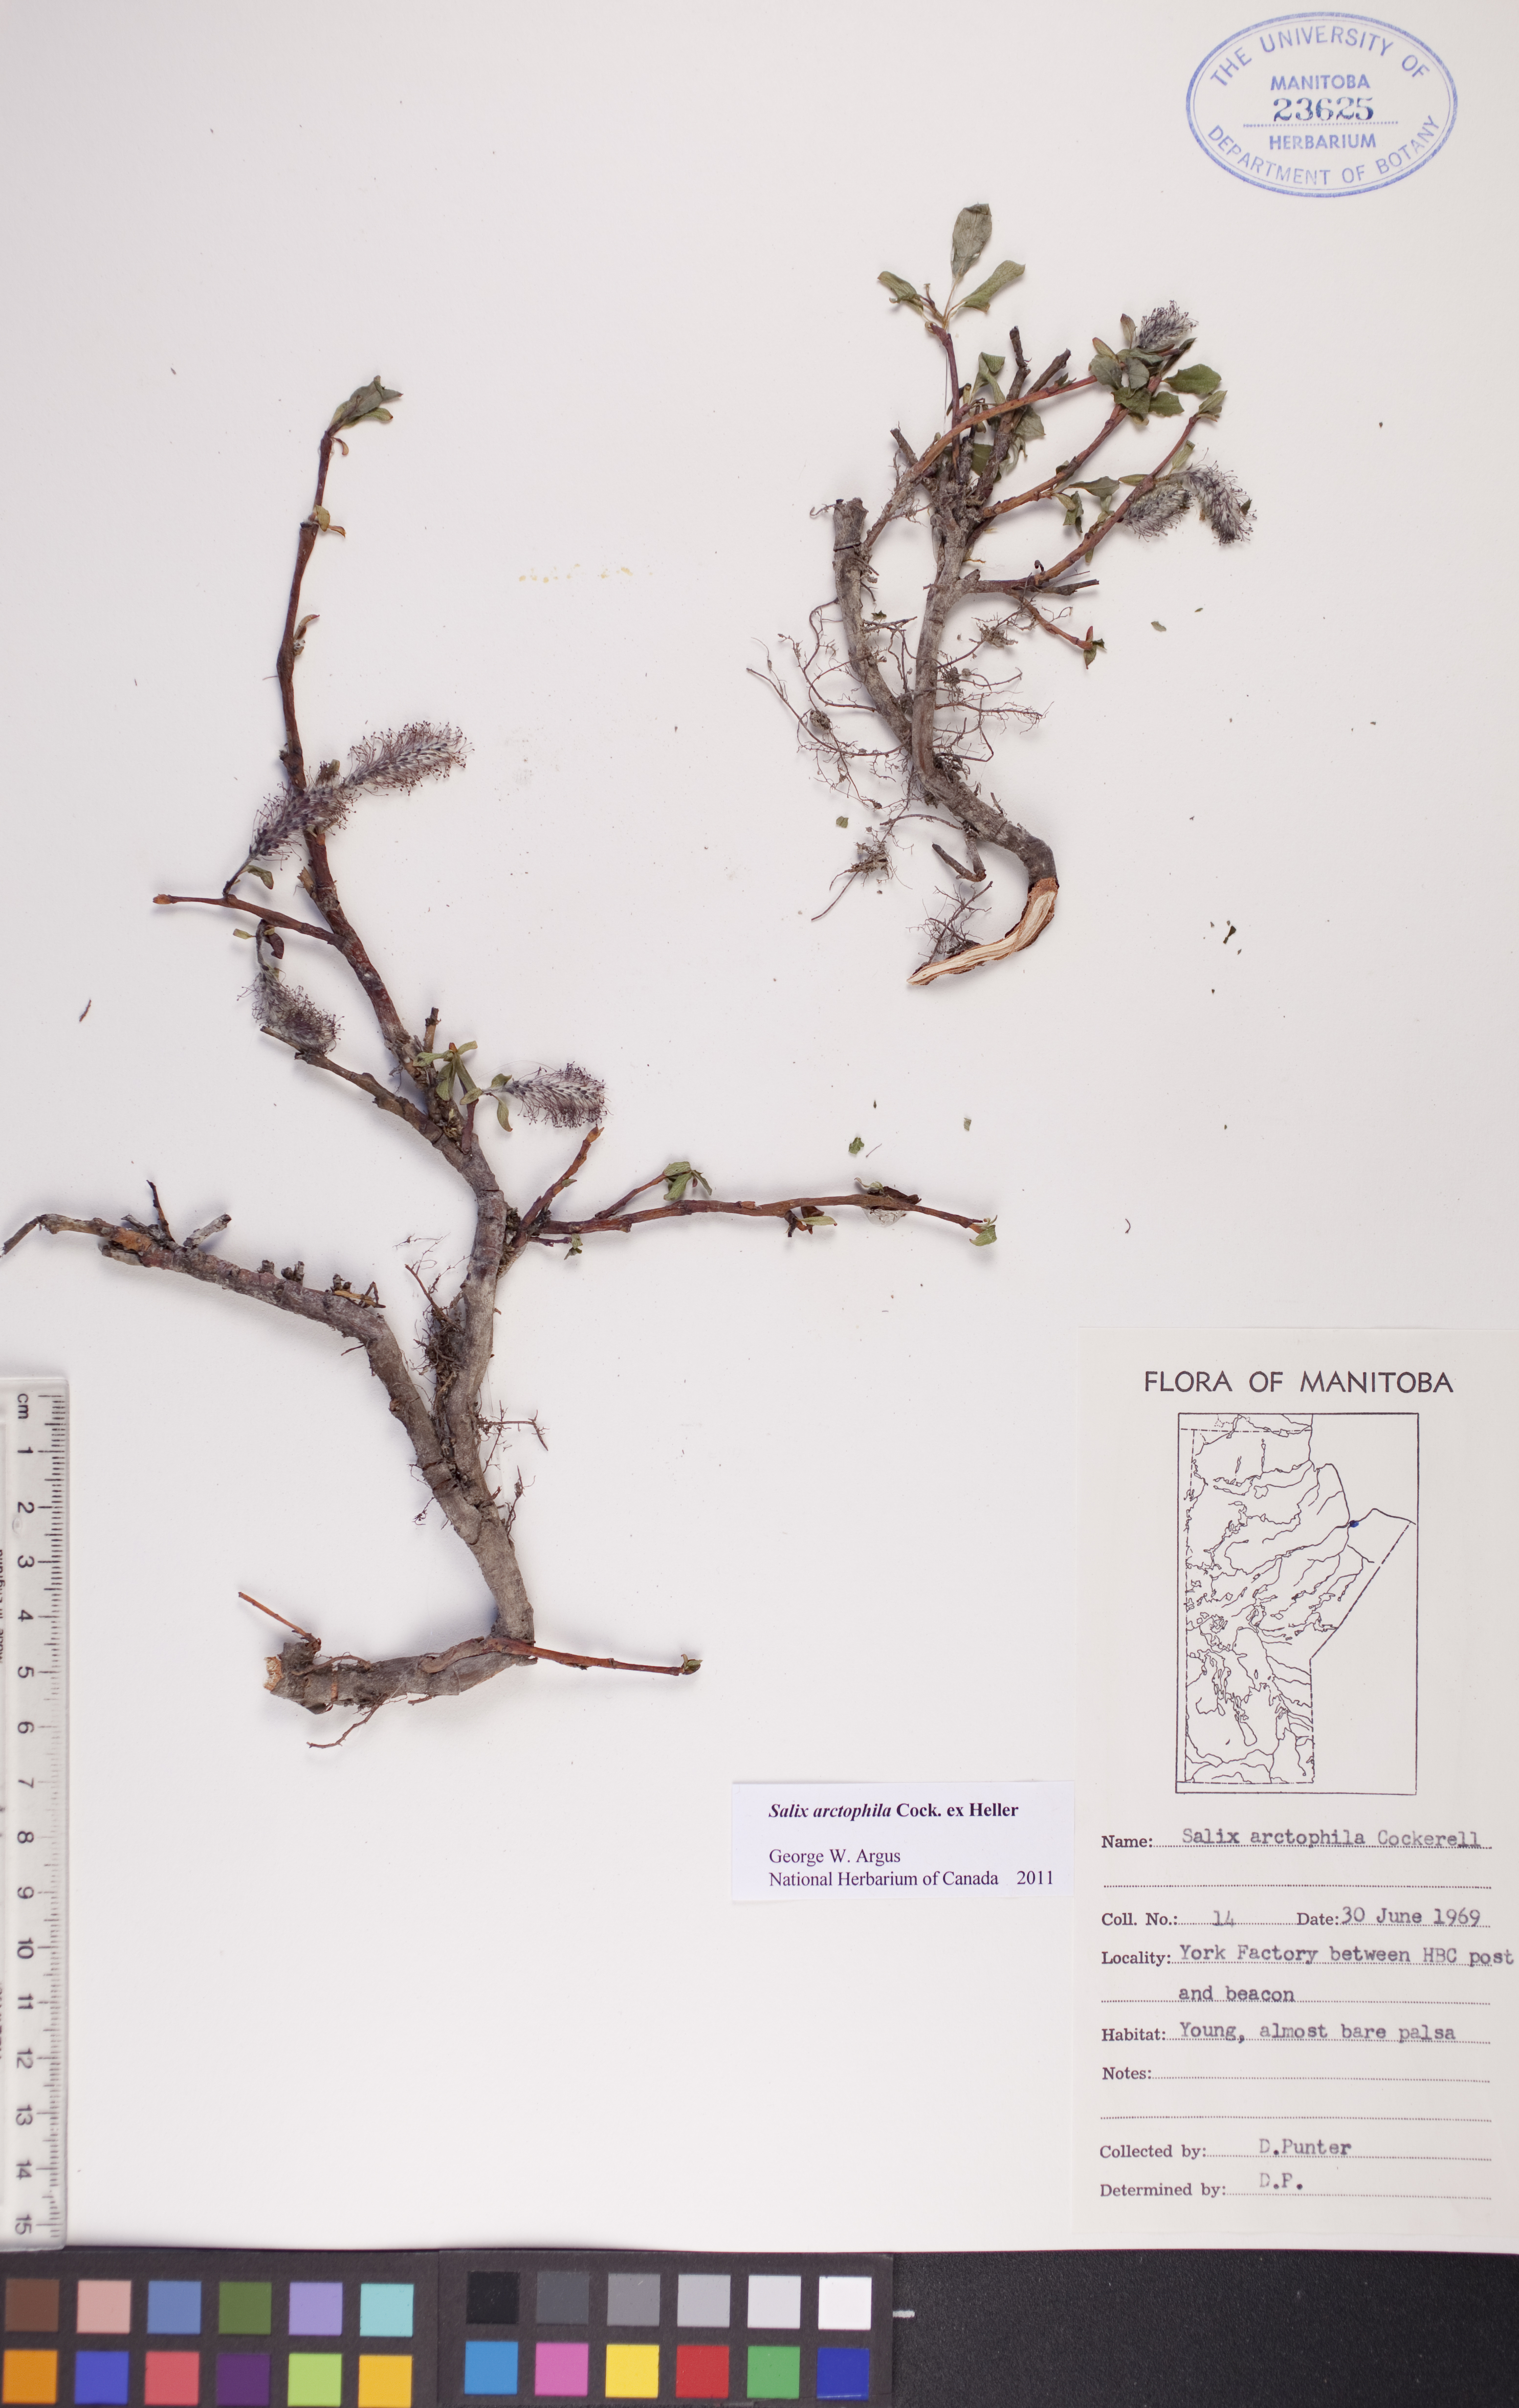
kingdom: Plantae
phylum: Tracheophyta
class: Magnoliopsida
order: Malpighiales
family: Salicaceae
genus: Salix
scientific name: Salix arctophila
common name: Greenland willow
